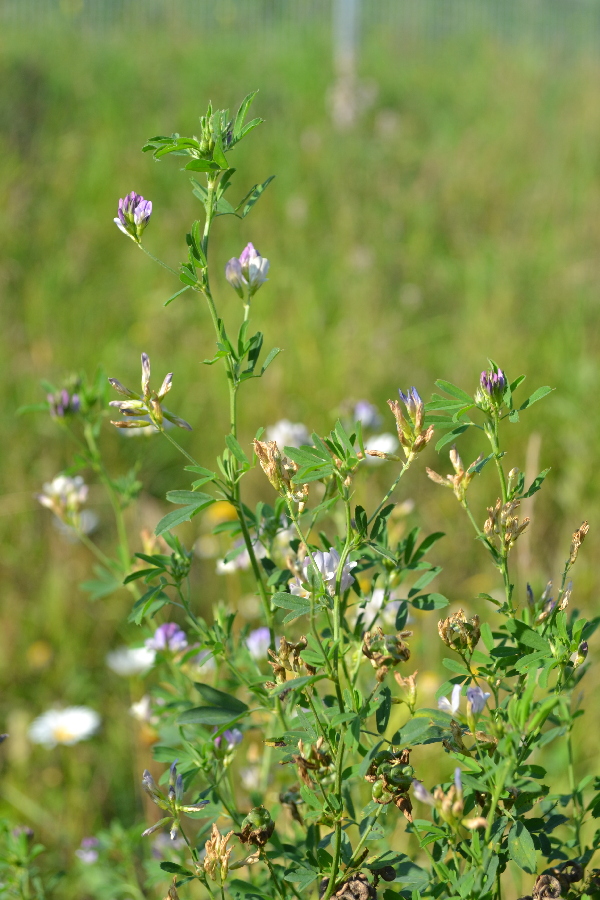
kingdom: Plantae
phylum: Tracheophyta
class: Magnoliopsida
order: Fabales
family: Fabaceae
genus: Medicago
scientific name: Medicago sativa
